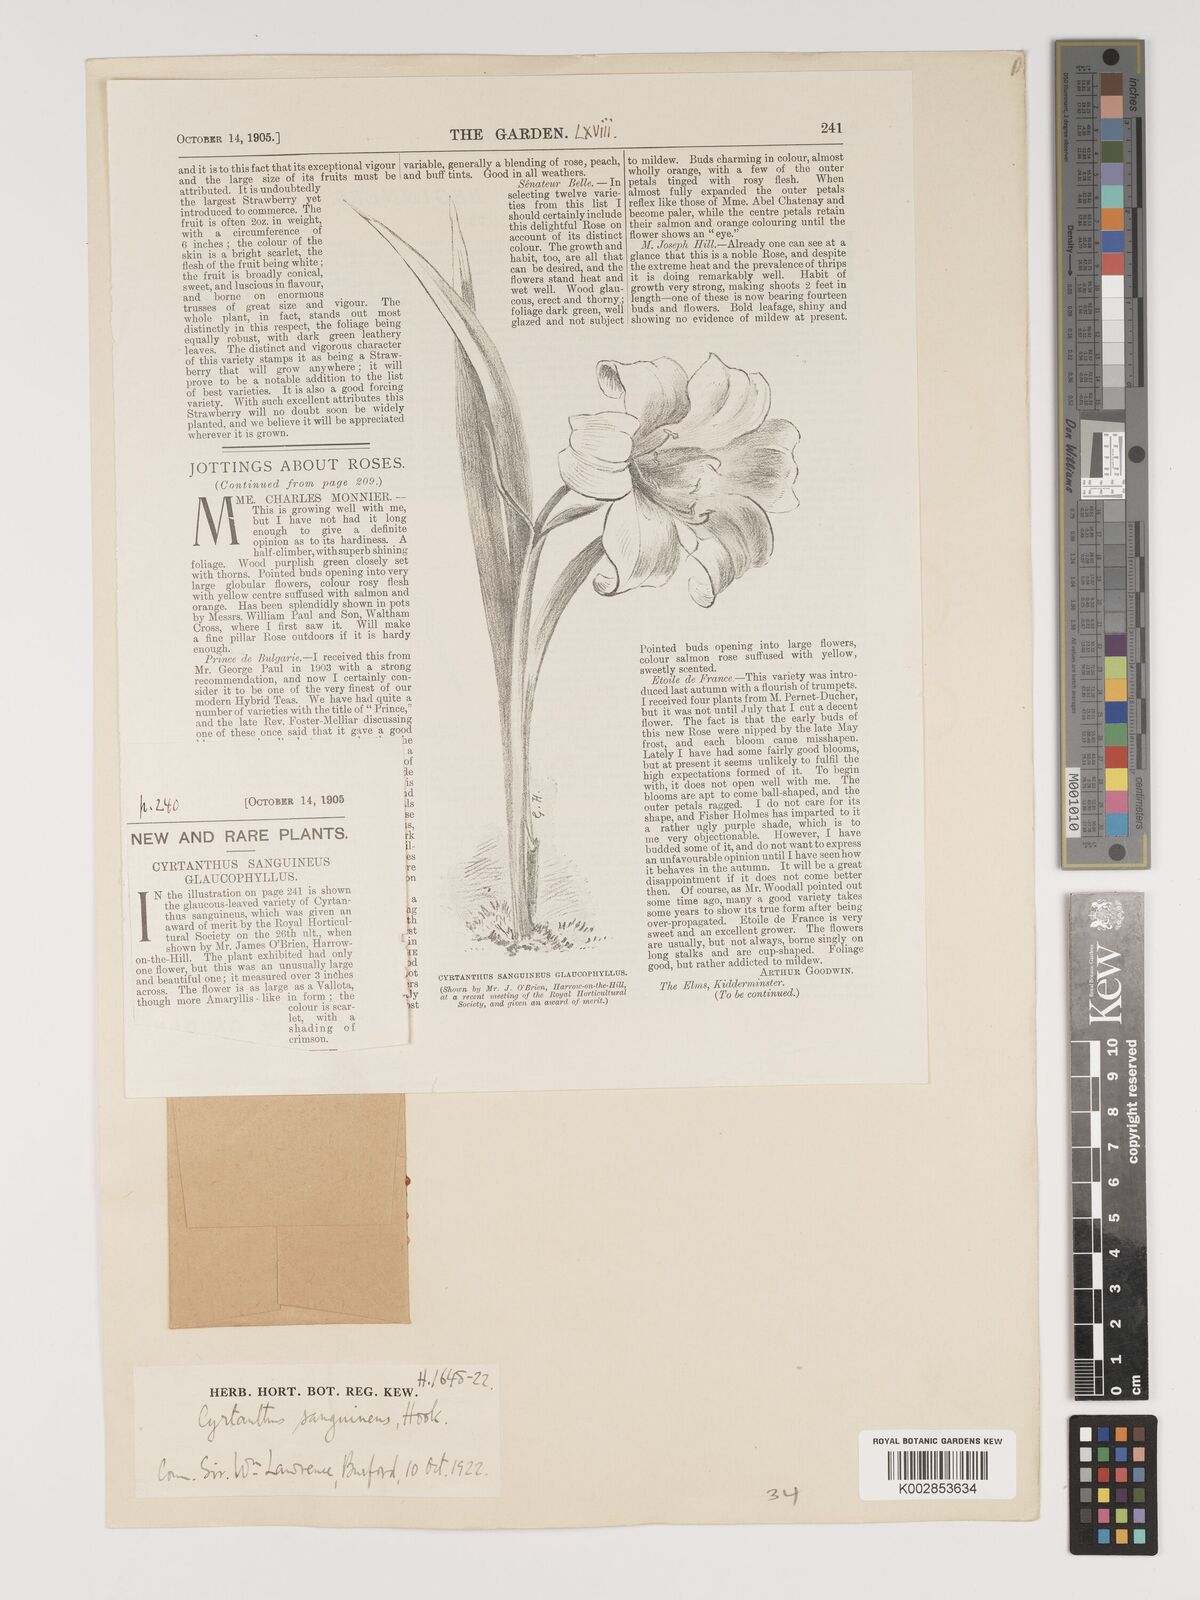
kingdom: Plantae
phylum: Tracheophyta
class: Liliopsida
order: Asparagales
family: Amaryllidaceae
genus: Cyrtanthus
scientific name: Cyrtanthus sanguineus
